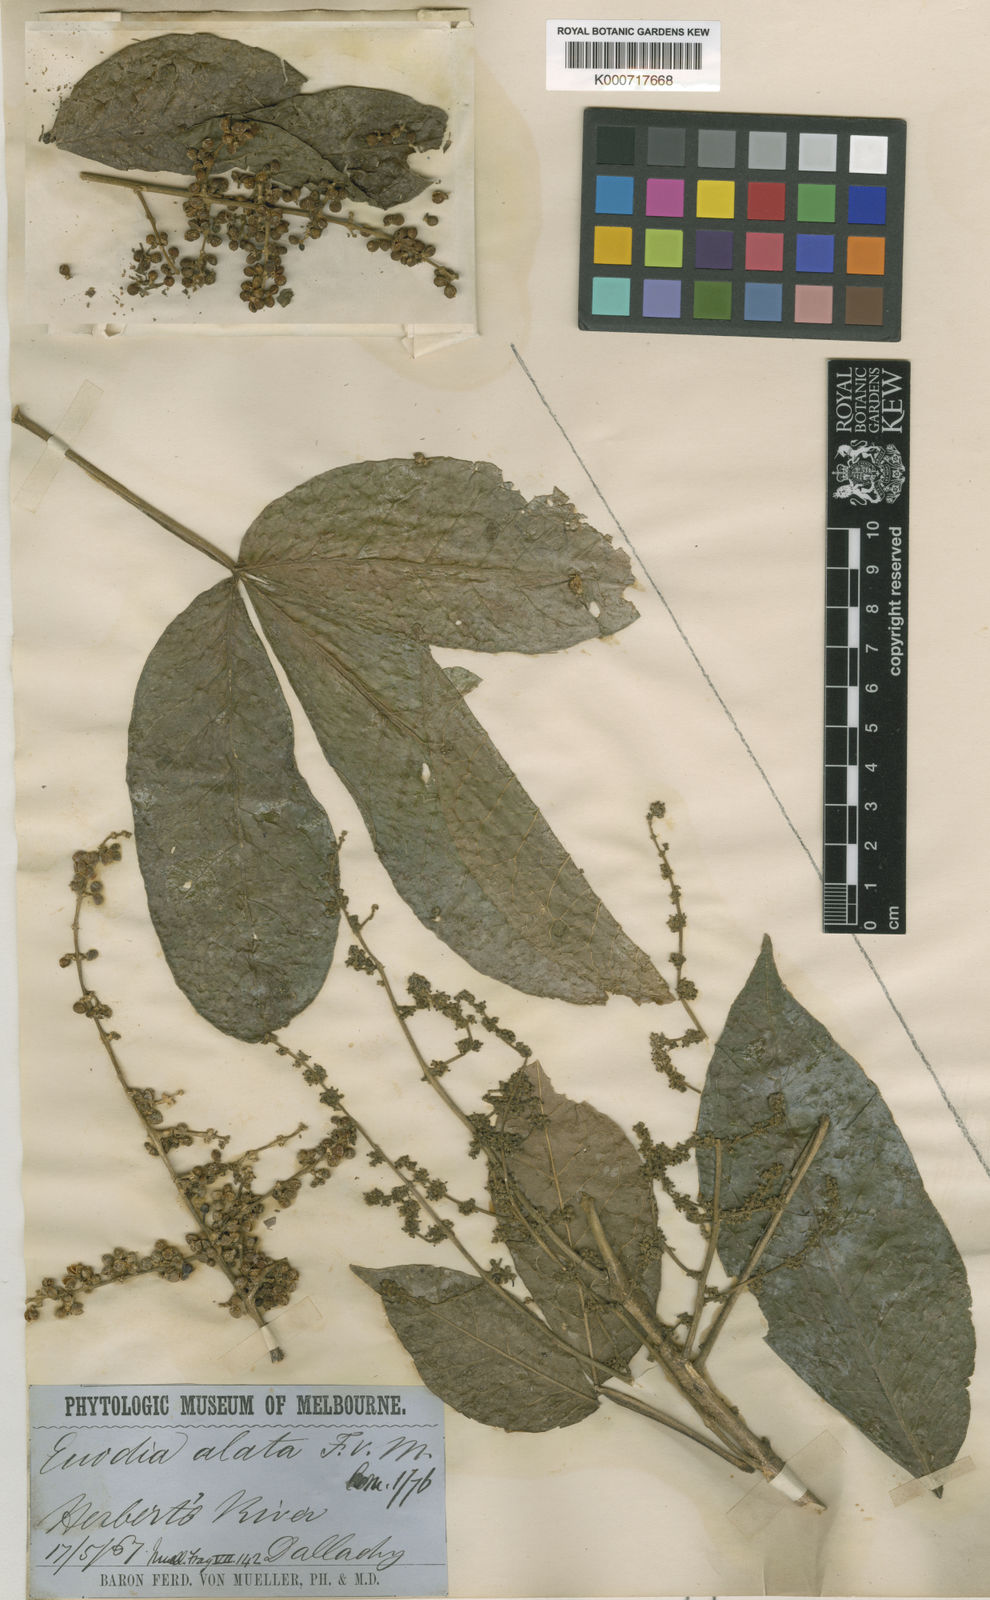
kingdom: Plantae
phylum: Tracheophyta
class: Magnoliopsida
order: Sapindales
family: Rutaceae
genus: Melicope
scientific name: Melicope xanthoxyloides
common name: Yellow evodia
